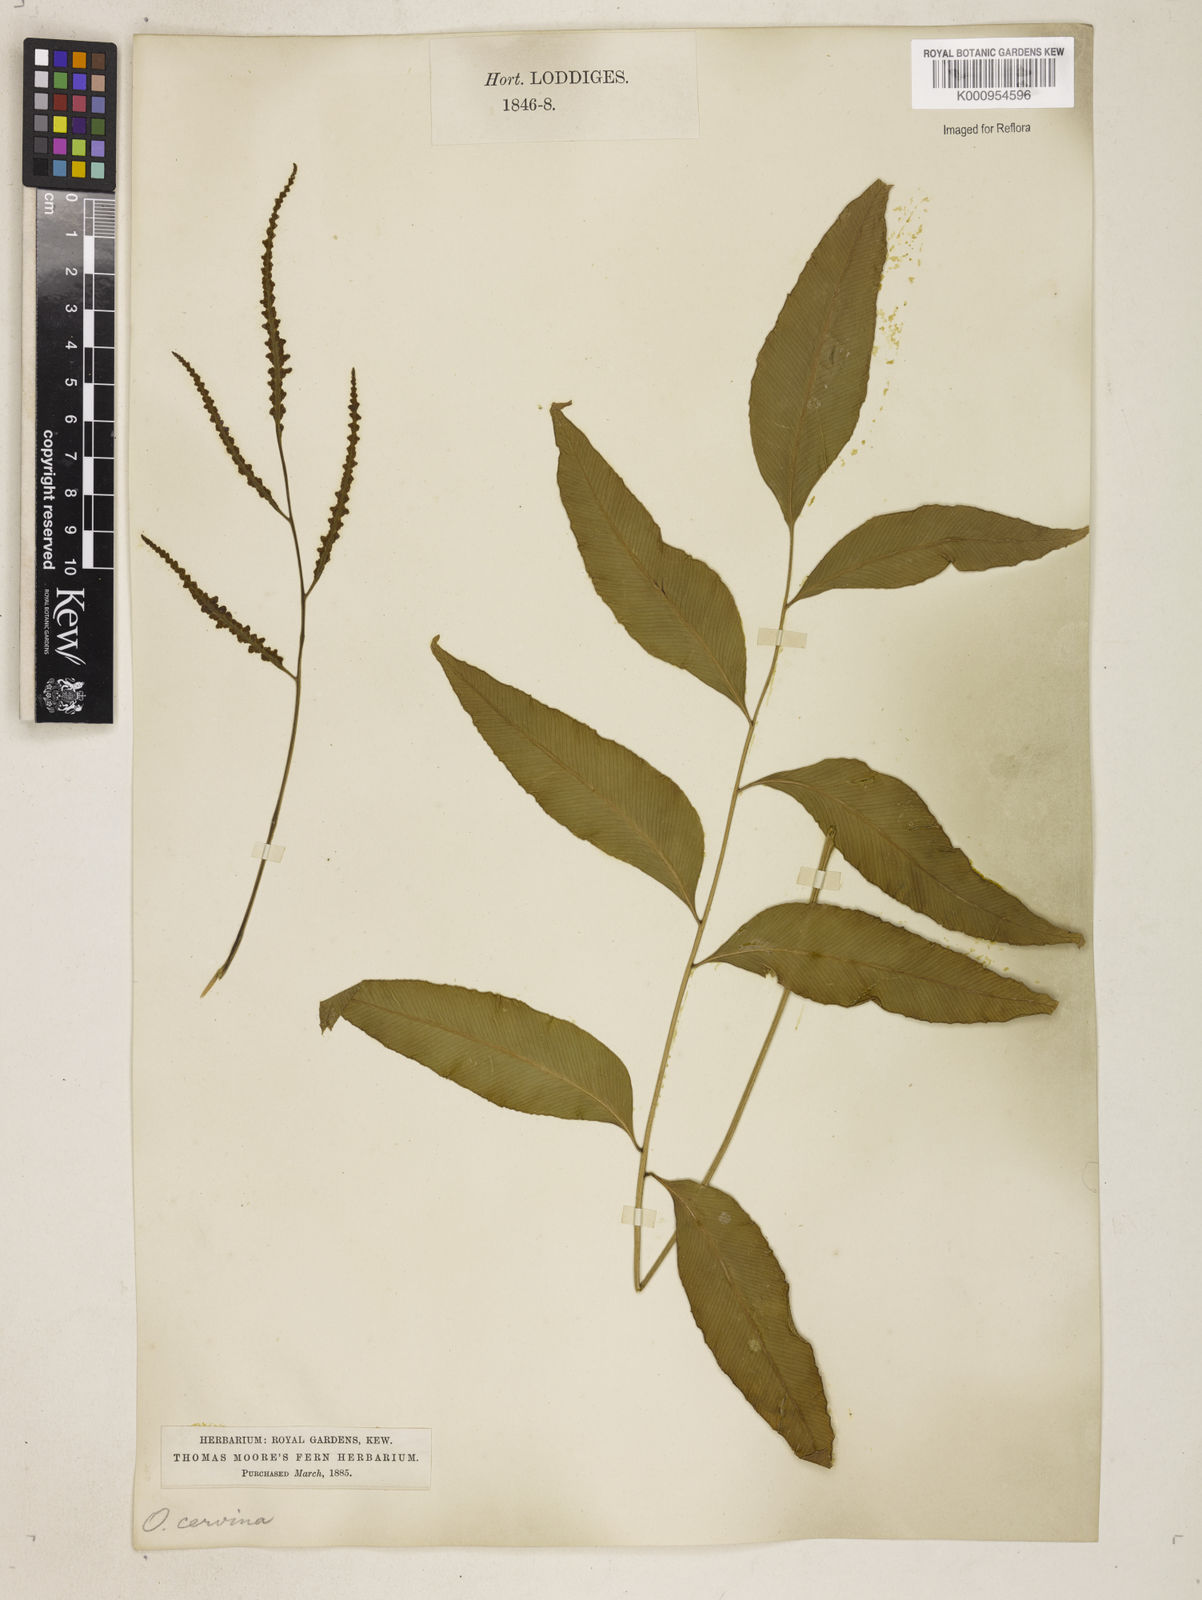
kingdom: Plantae
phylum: Tracheophyta
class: Polypodiopsida
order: Polypodiales
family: Dryopteridaceae
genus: Olfersia
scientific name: Olfersia cervina
